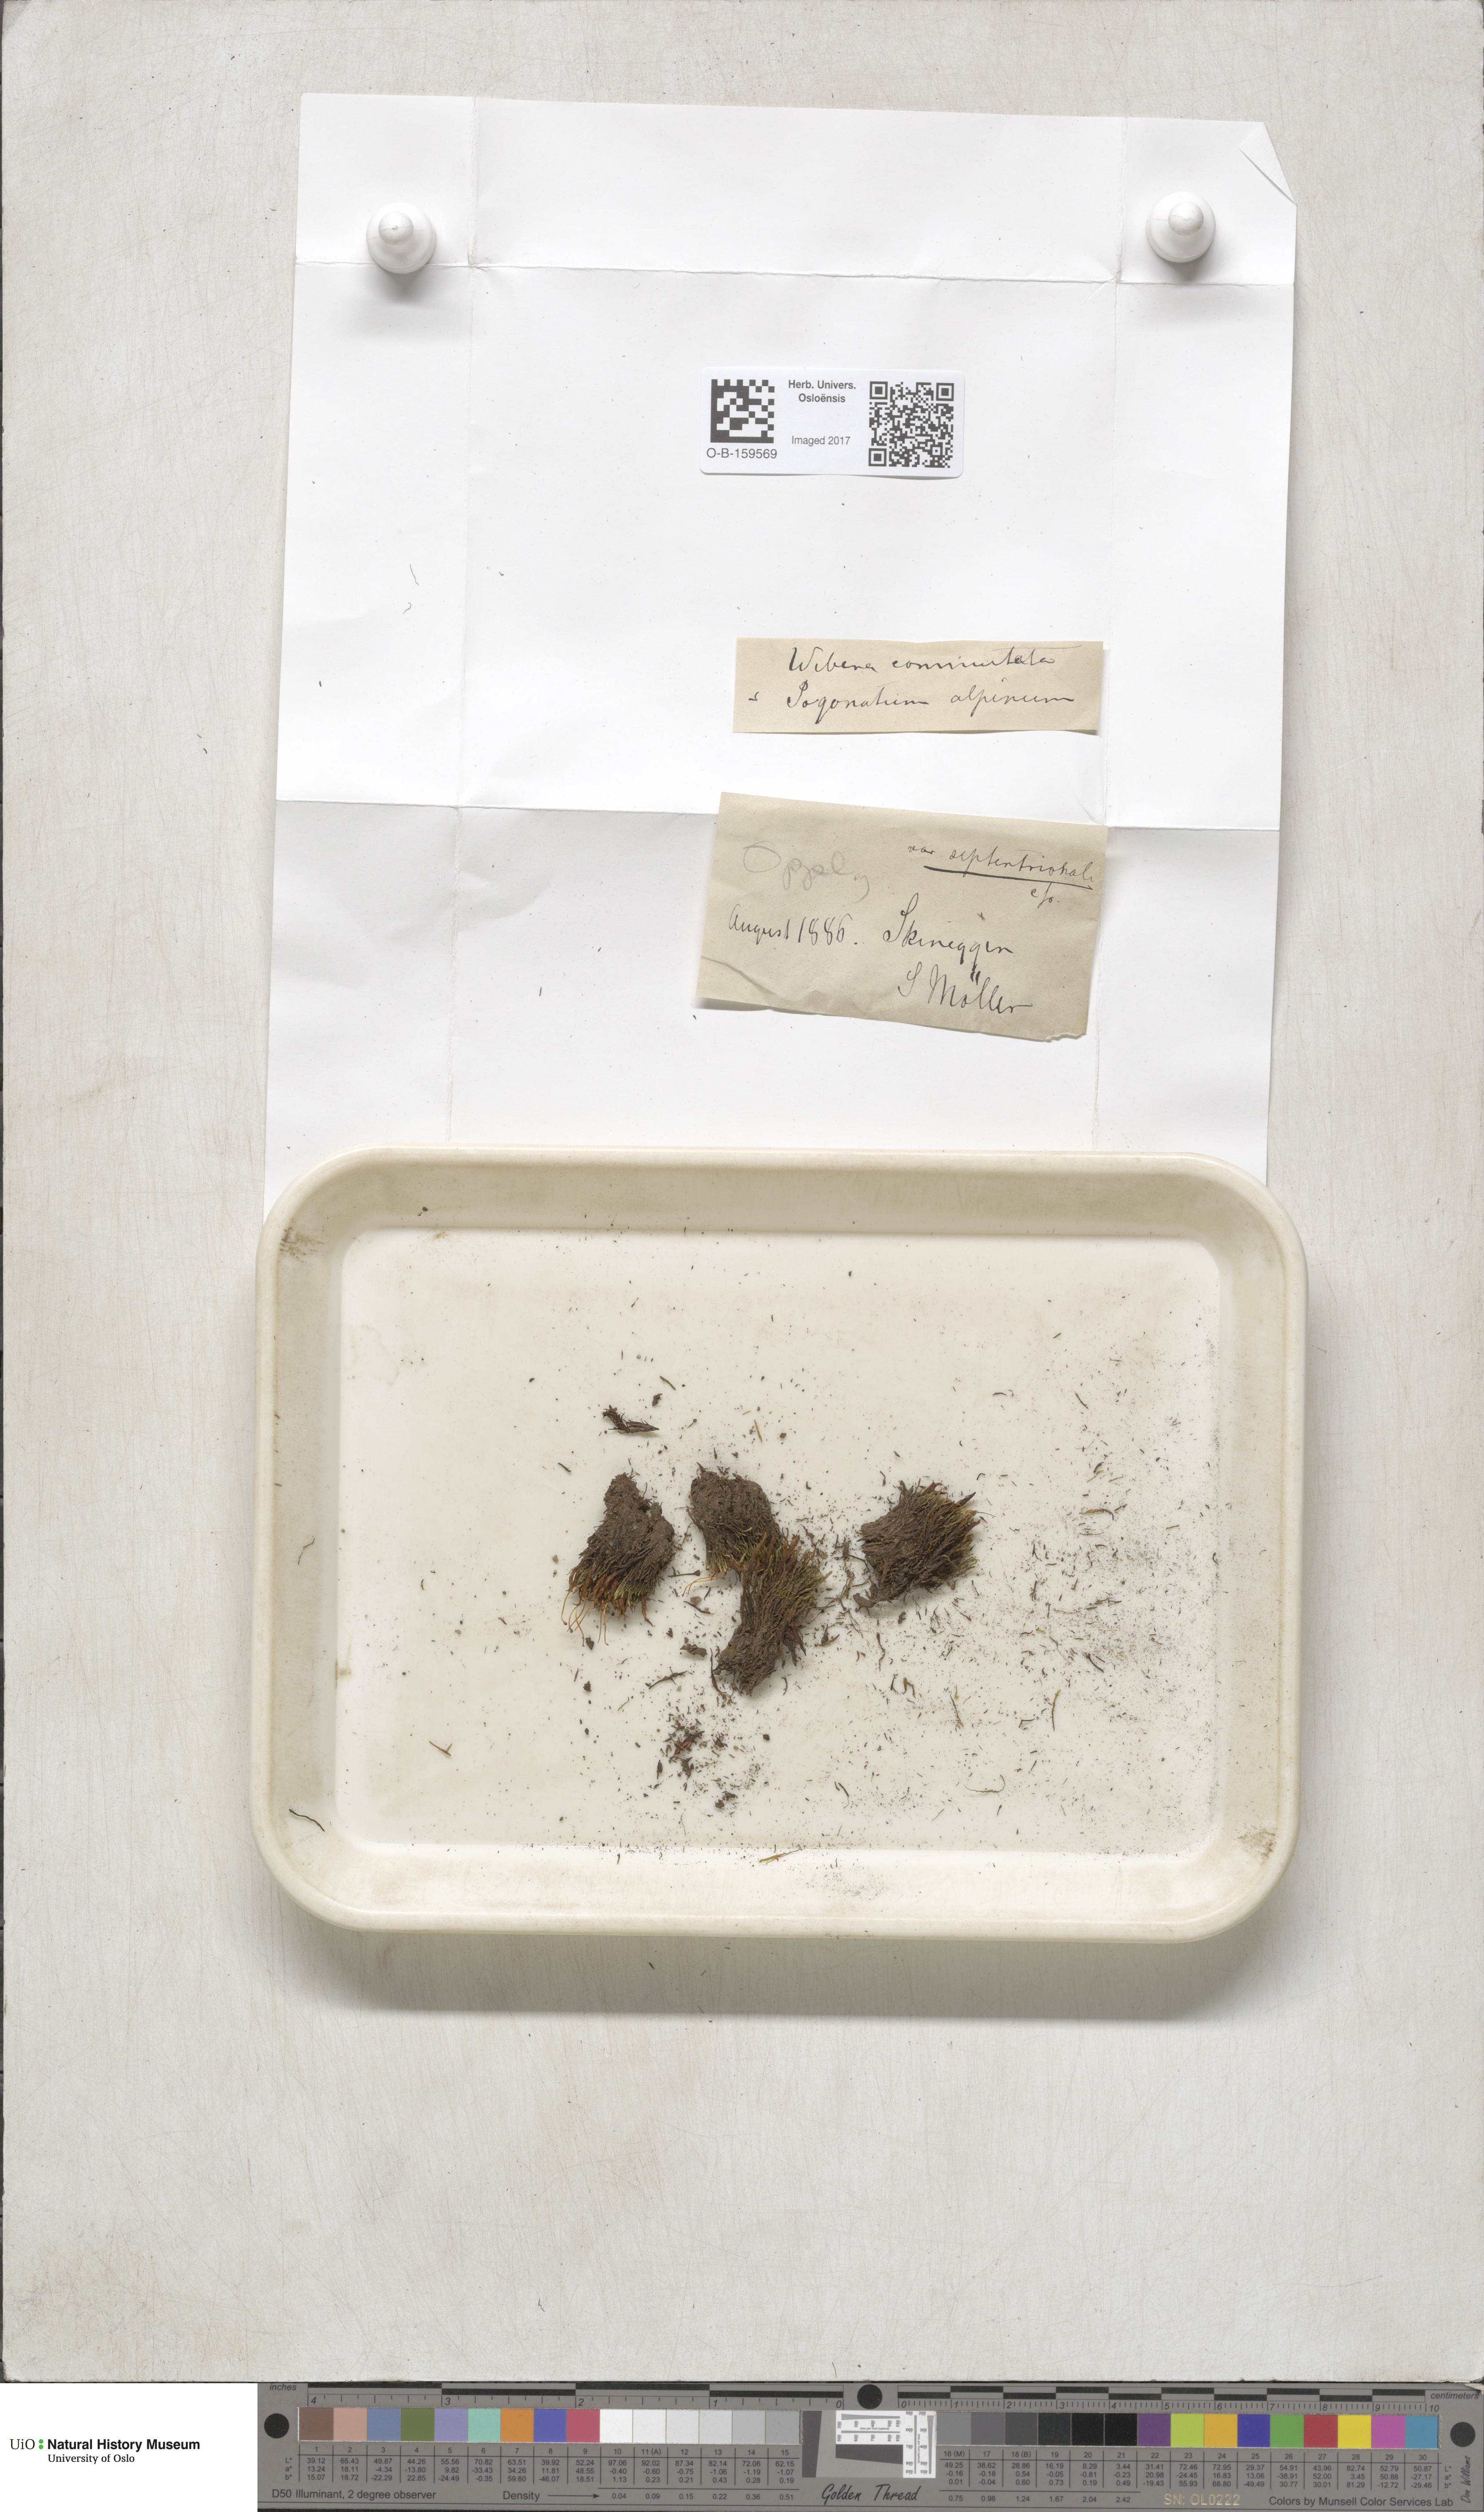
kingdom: Plantae
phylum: Bryophyta
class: Bryopsida
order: Bryales
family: Mniaceae
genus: Pohlia
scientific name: Pohlia drummondii
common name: Drummond's nodding moss
